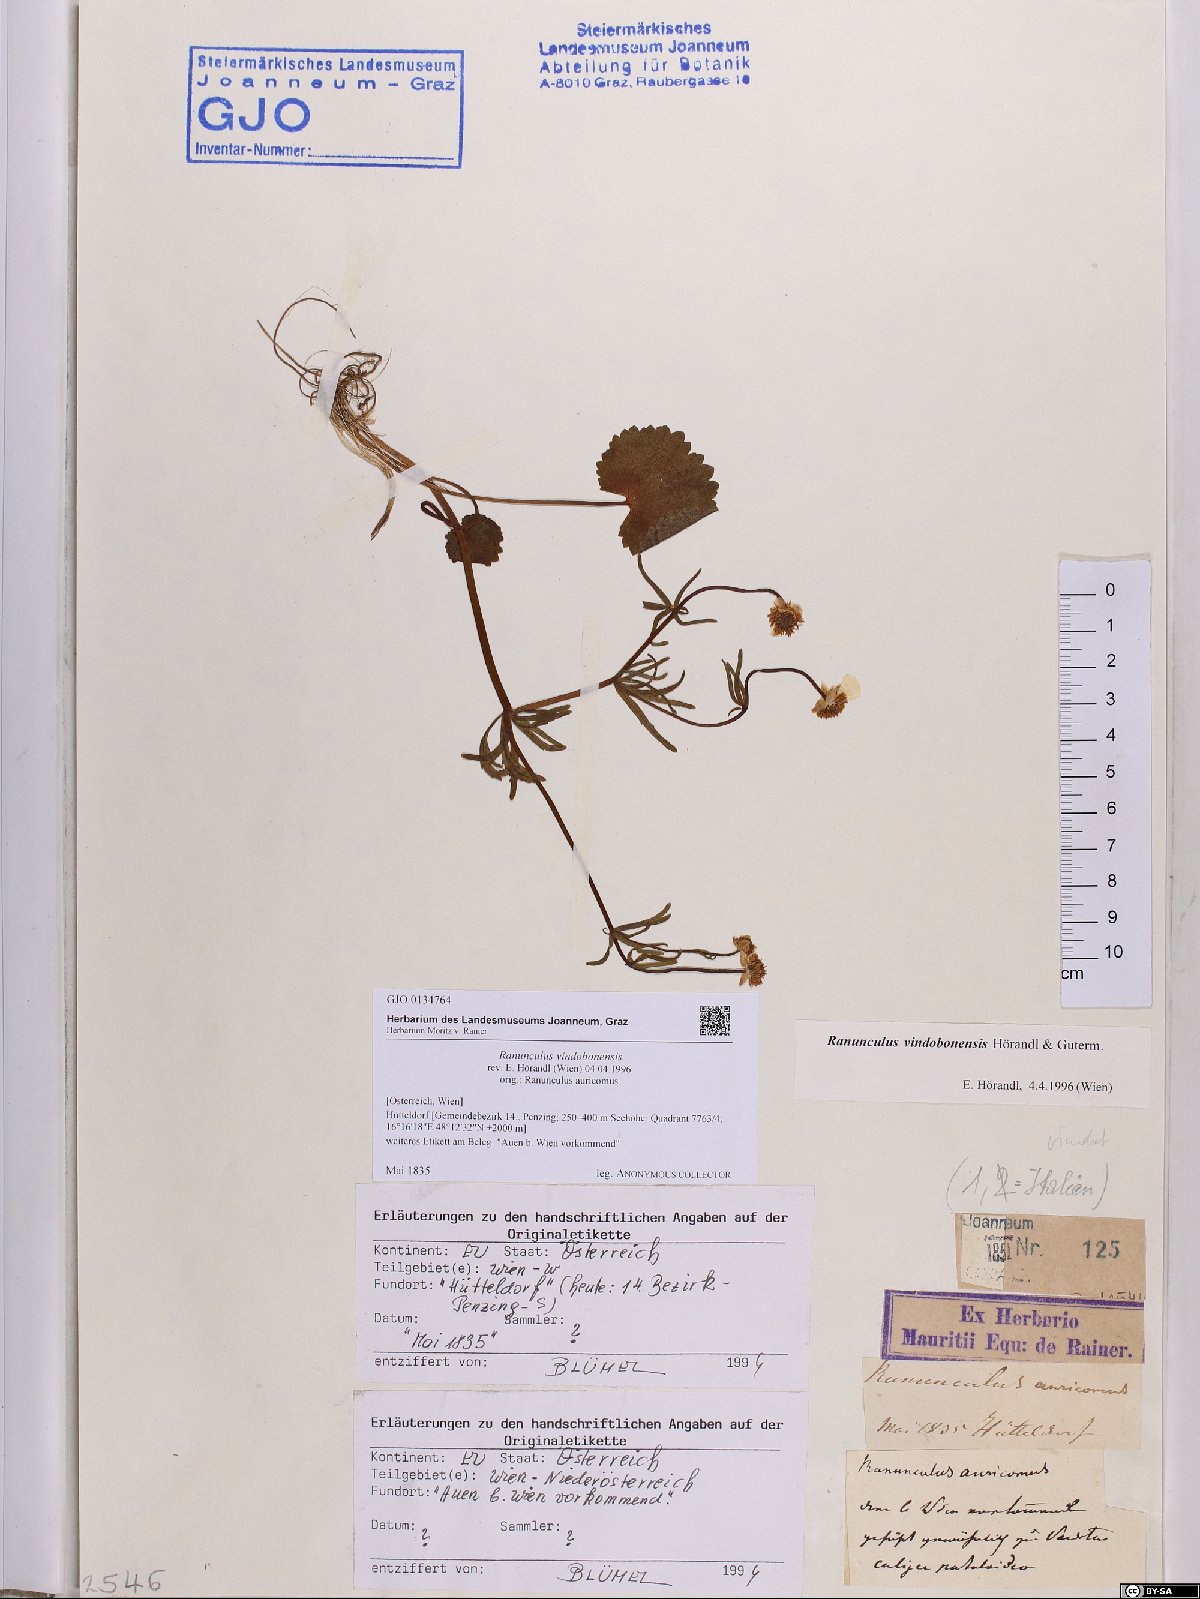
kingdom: Plantae
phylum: Tracheophyta
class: Magnoliopsida
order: Ranunculales
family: Ranunculaceae
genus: Ranunculus
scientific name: Ranunculus vindobonensis
